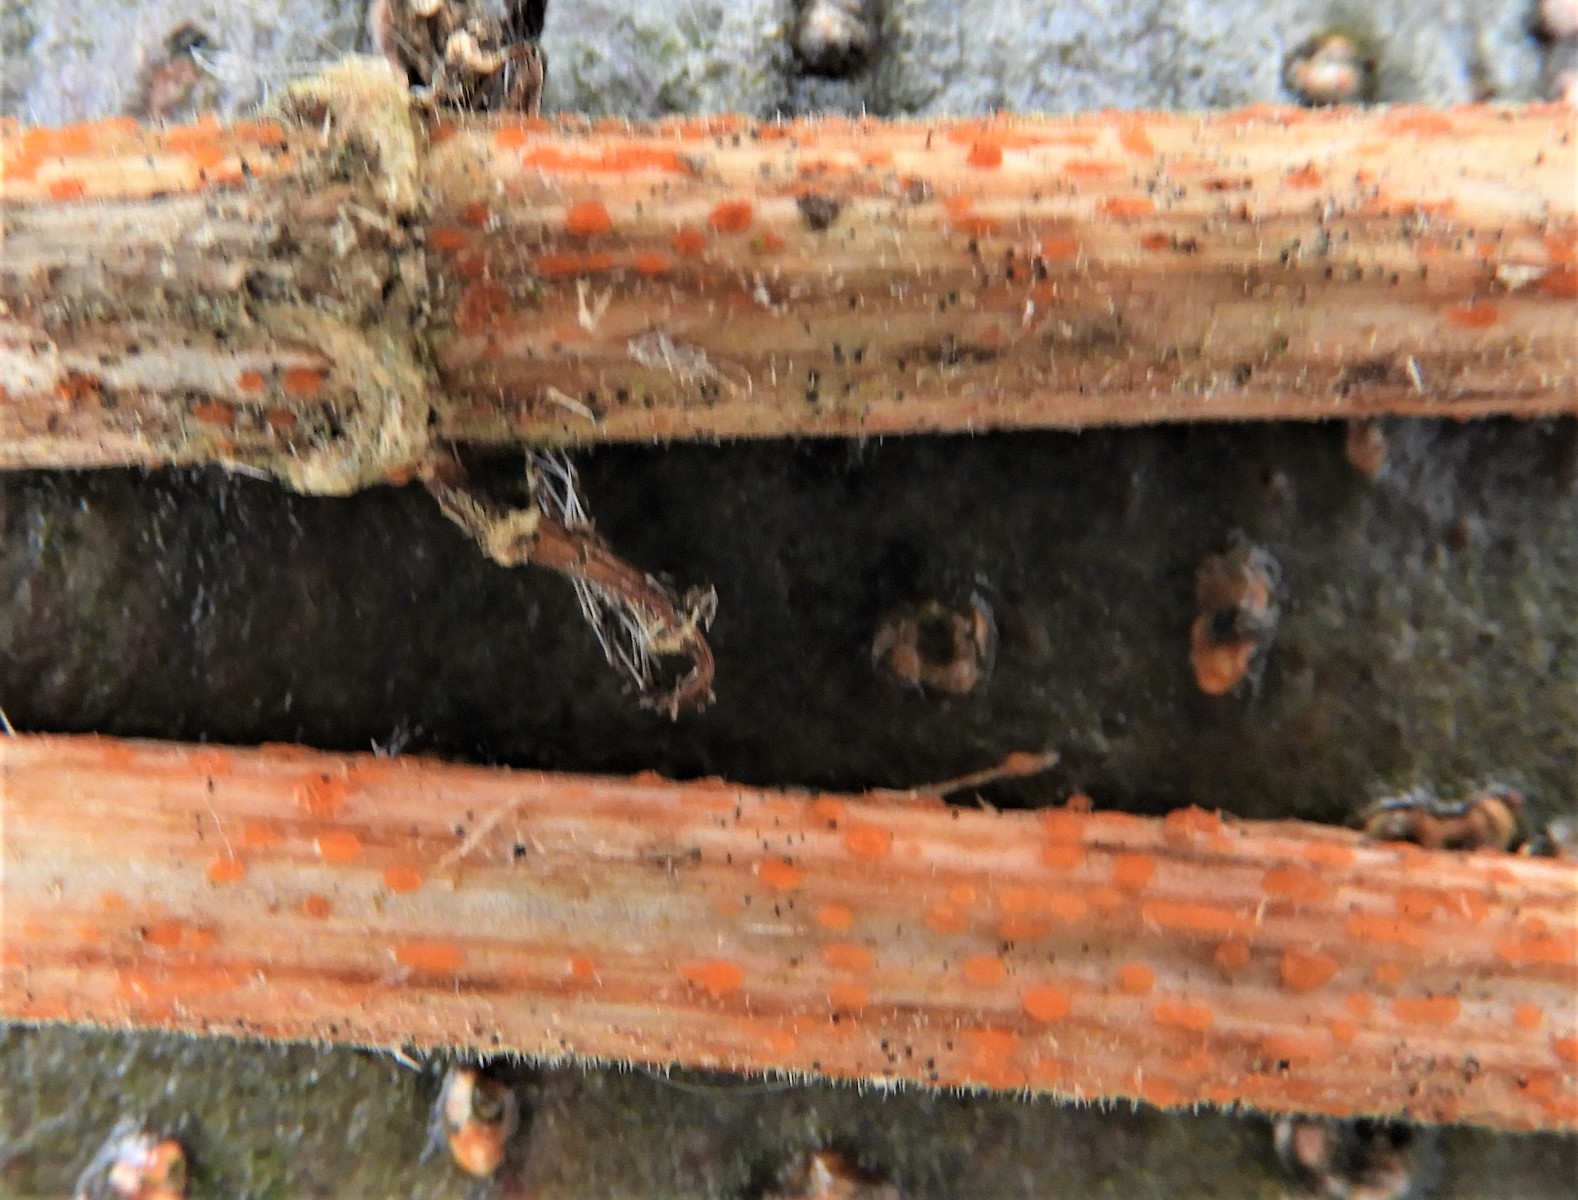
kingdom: Fungi
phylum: Ascomycota
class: Leotiomycetes
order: Helotiales
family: Calloriaceae
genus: Calloria
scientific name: Calloria urticae
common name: nælde-orangeskive
